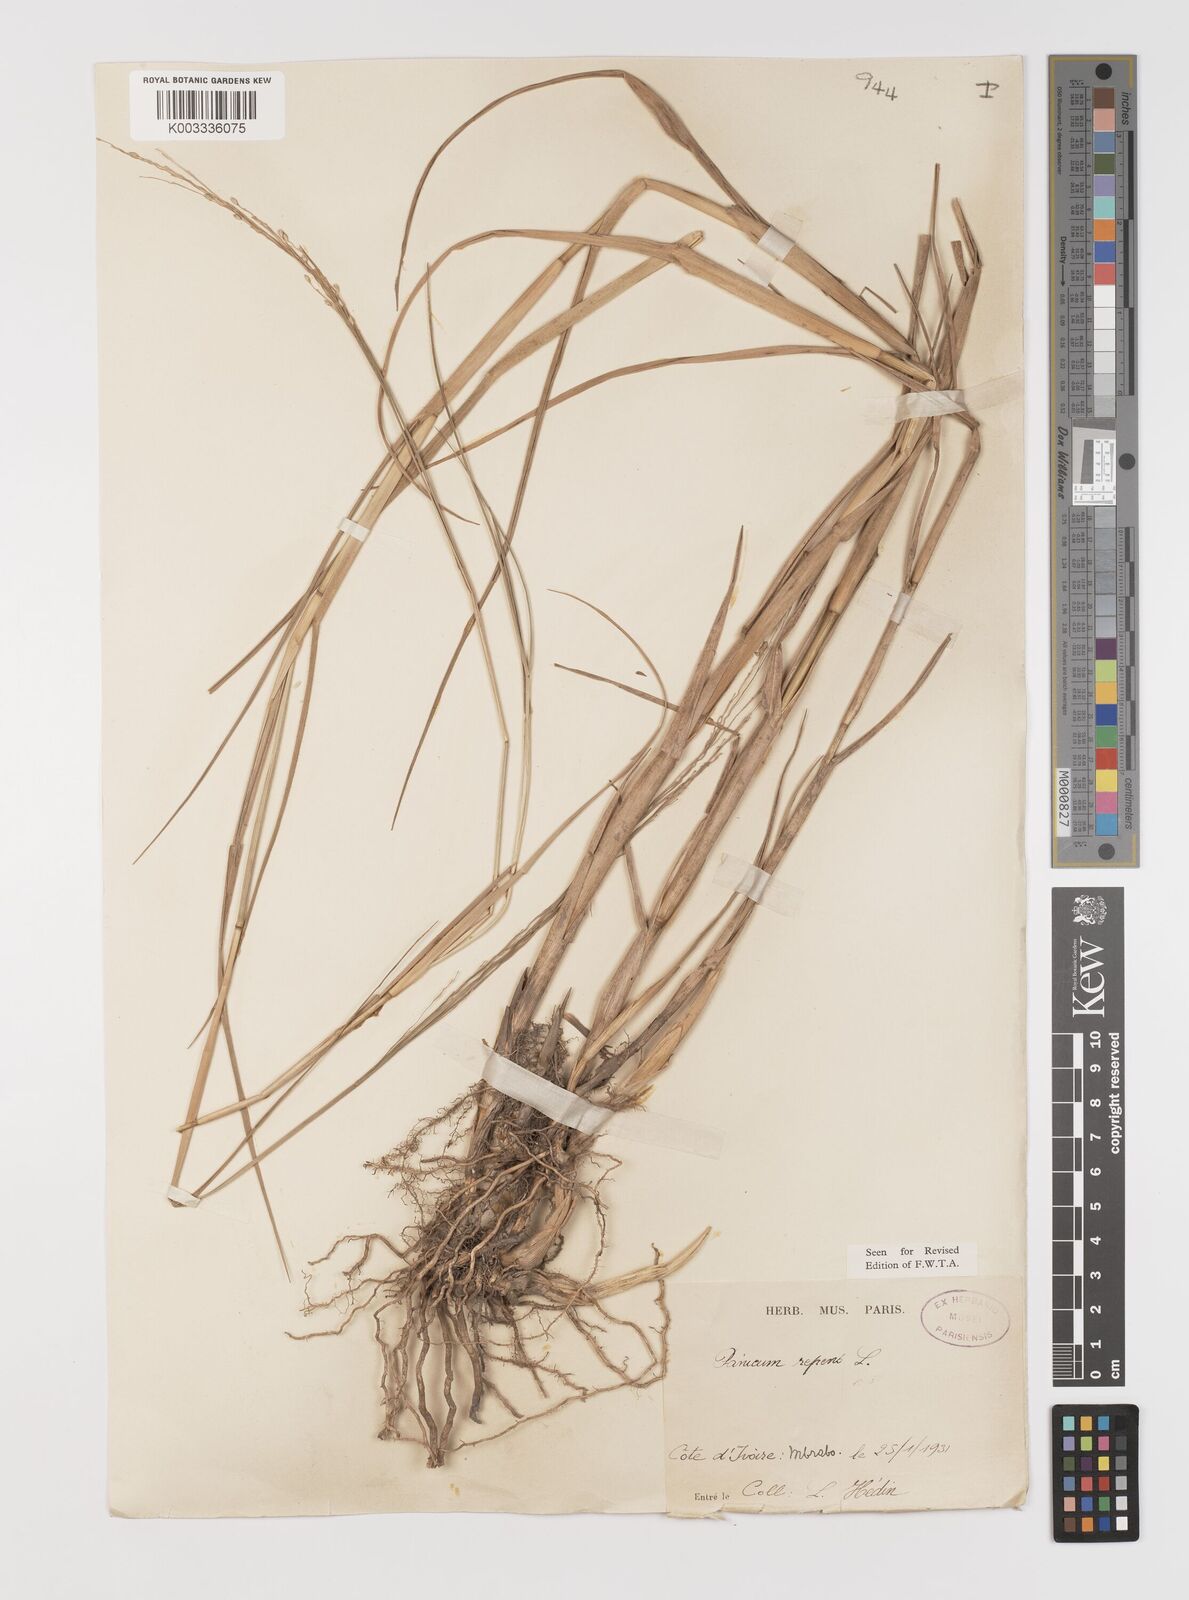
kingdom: Plantae
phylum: Tracheophyta
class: Liliopsida
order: Poales
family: Poaceae
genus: Panicum
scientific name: Panicum repens
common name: Torpedo grass
